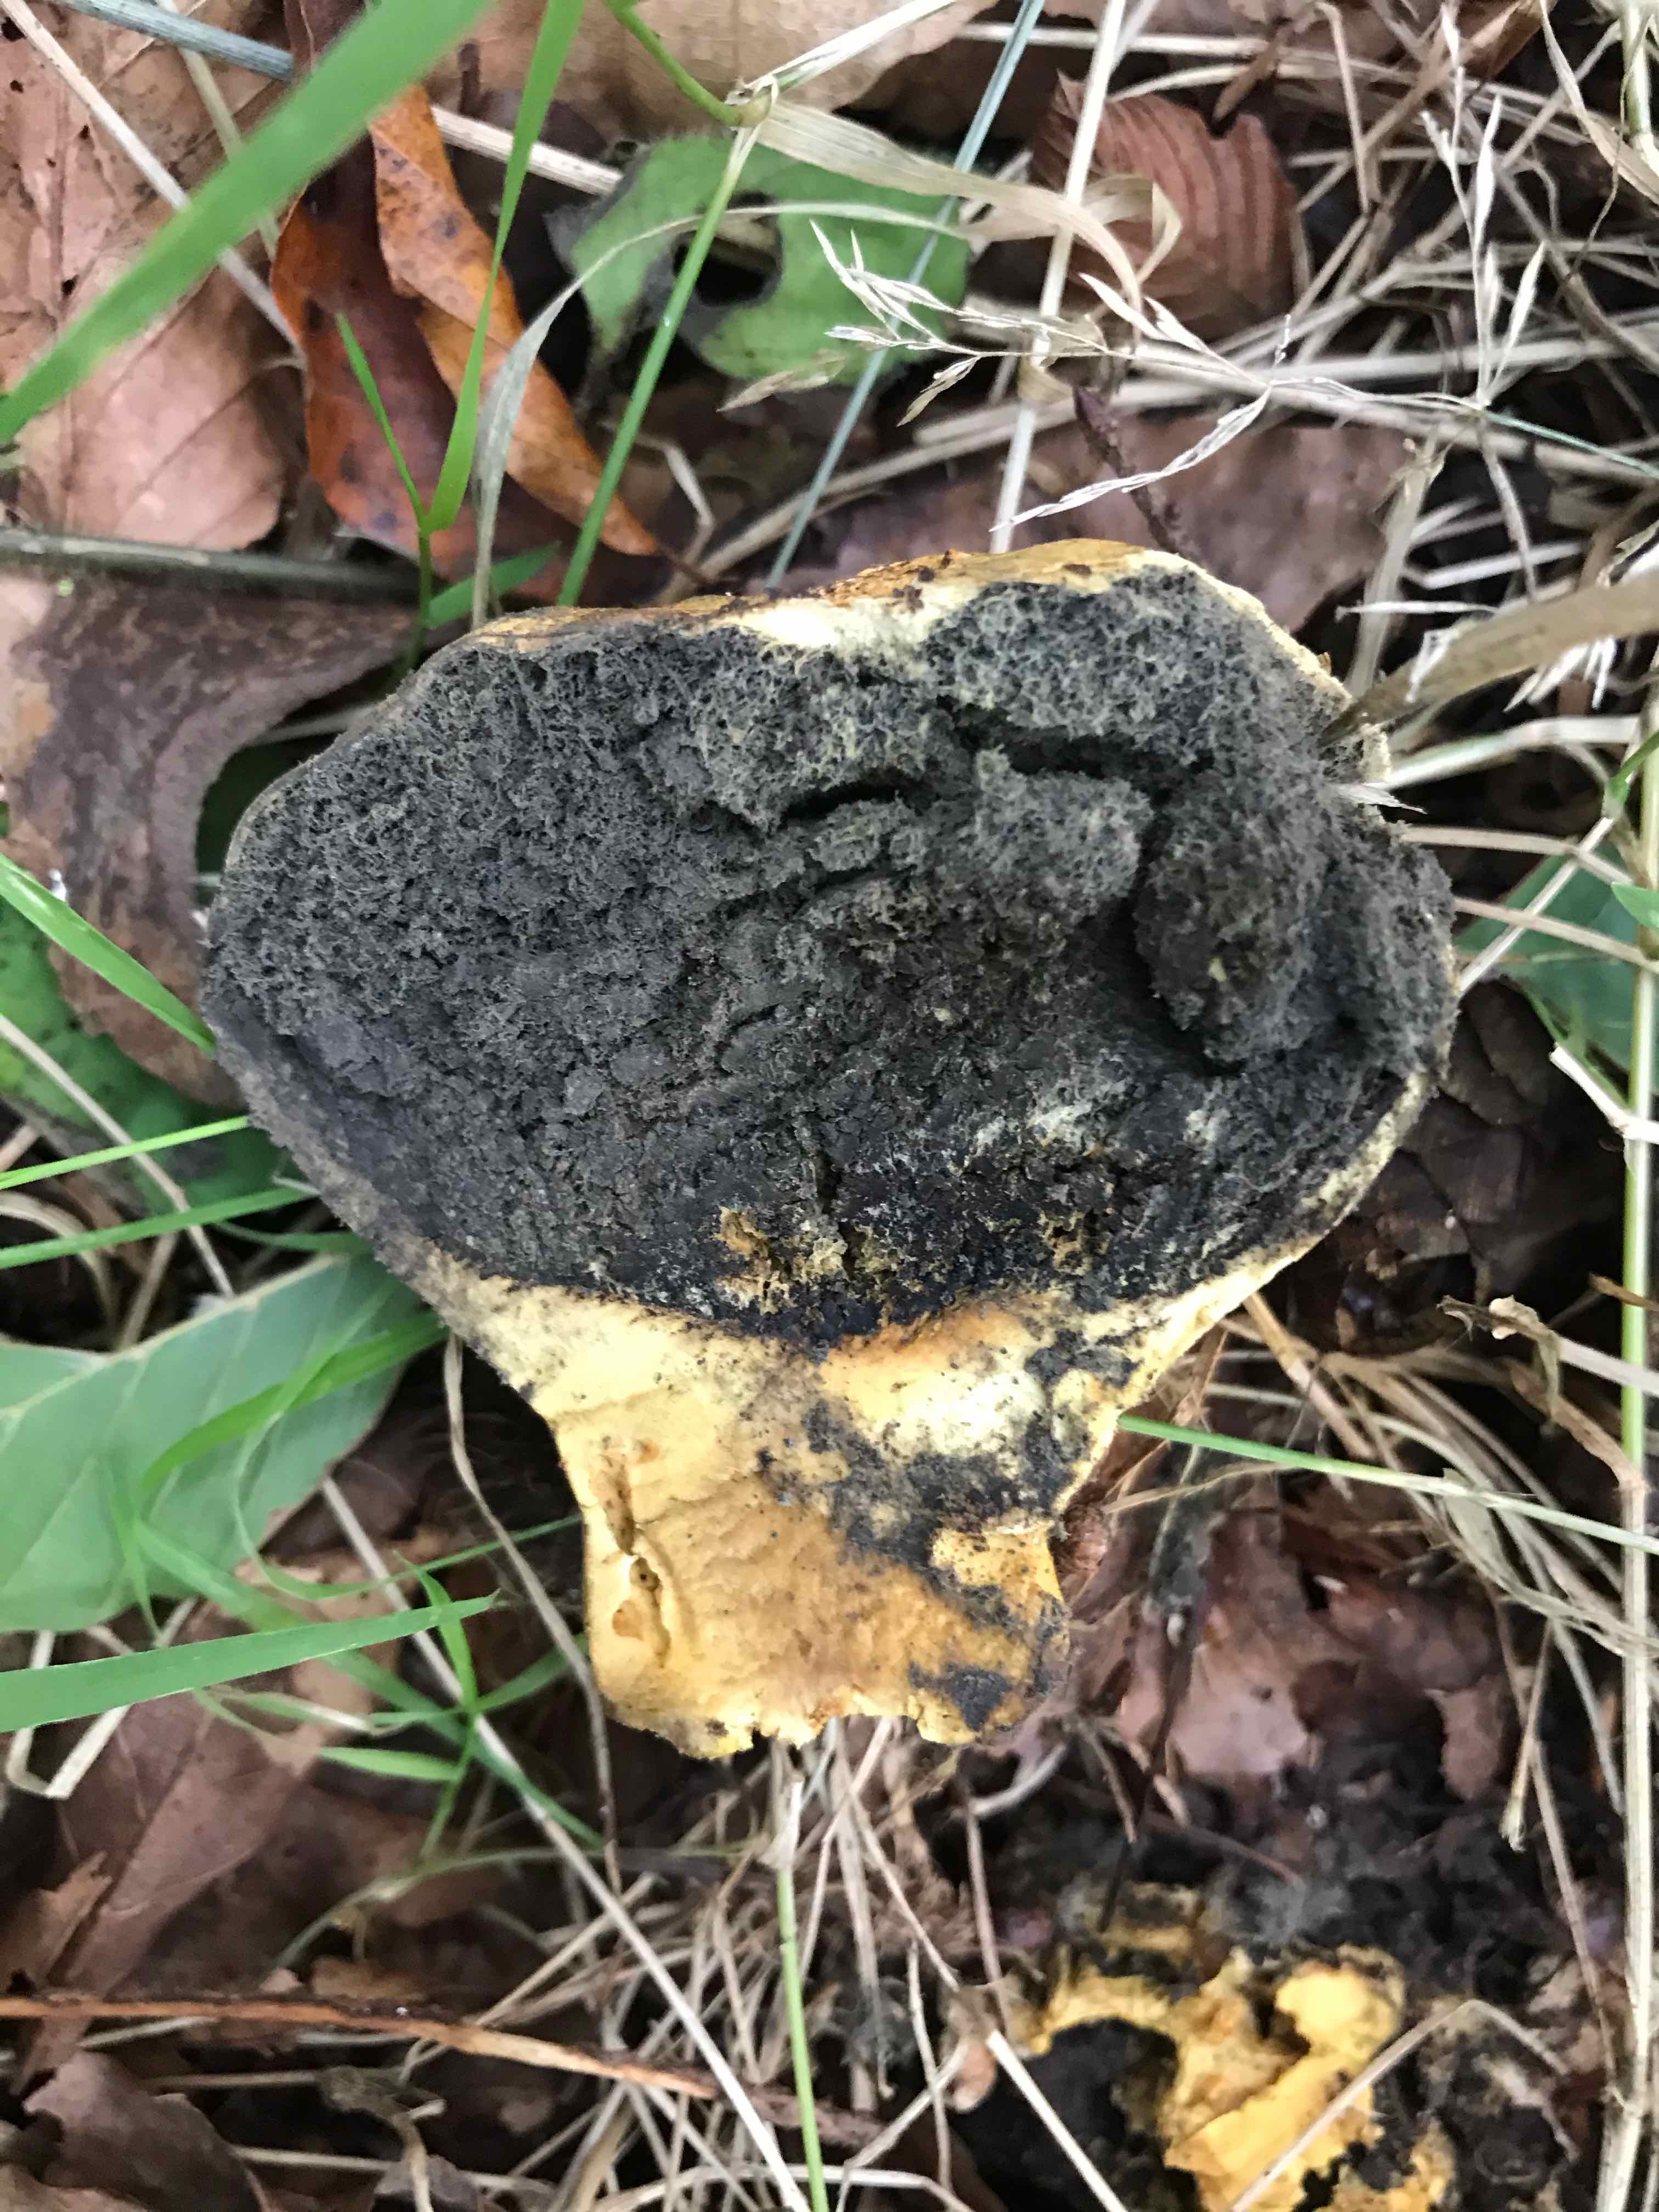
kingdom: Fungi
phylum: Basidiomycota
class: Agaricomycetes
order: Boletales
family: Sclerodermataceae
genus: Scleroderma
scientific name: Scleroderma verrucosum
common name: stilket bruskbold
